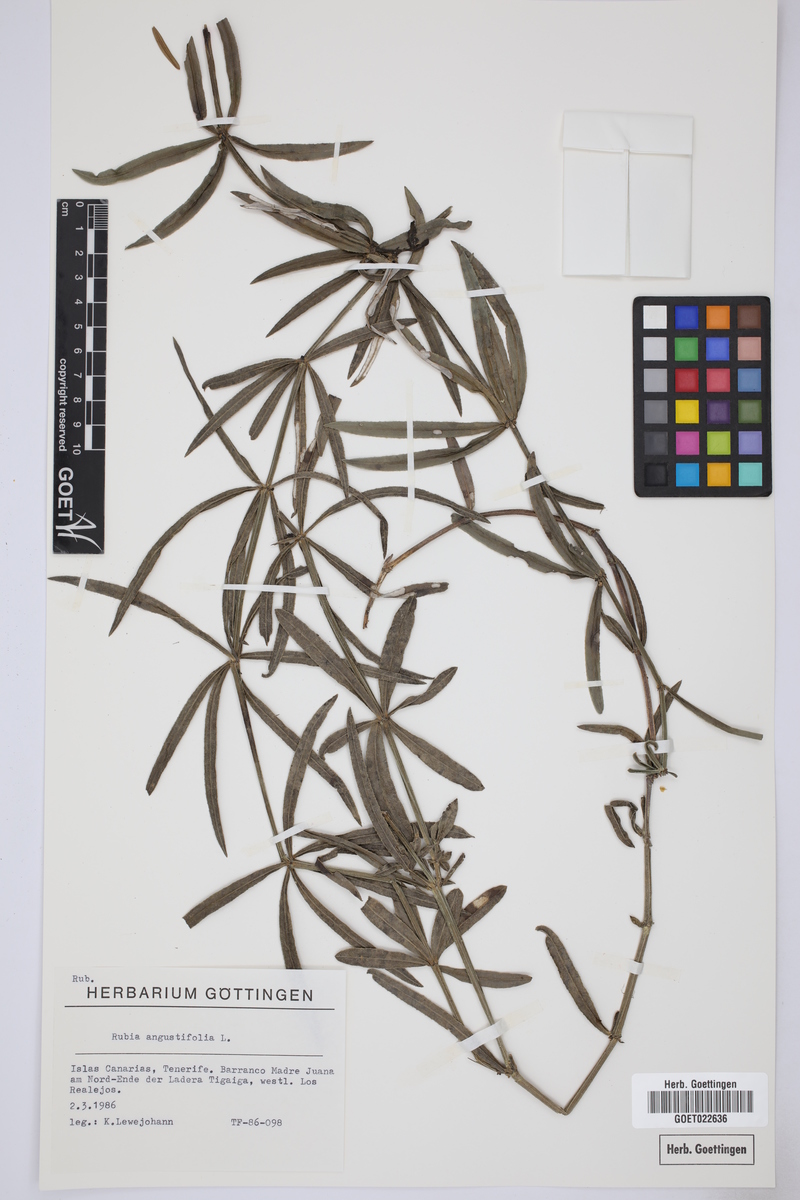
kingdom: Plantae
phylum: Tracheophyta
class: Magnoliopsida
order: Gentianales
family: Rubiaceae
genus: Rubia
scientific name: Rubia peregrina
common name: Wild madder
